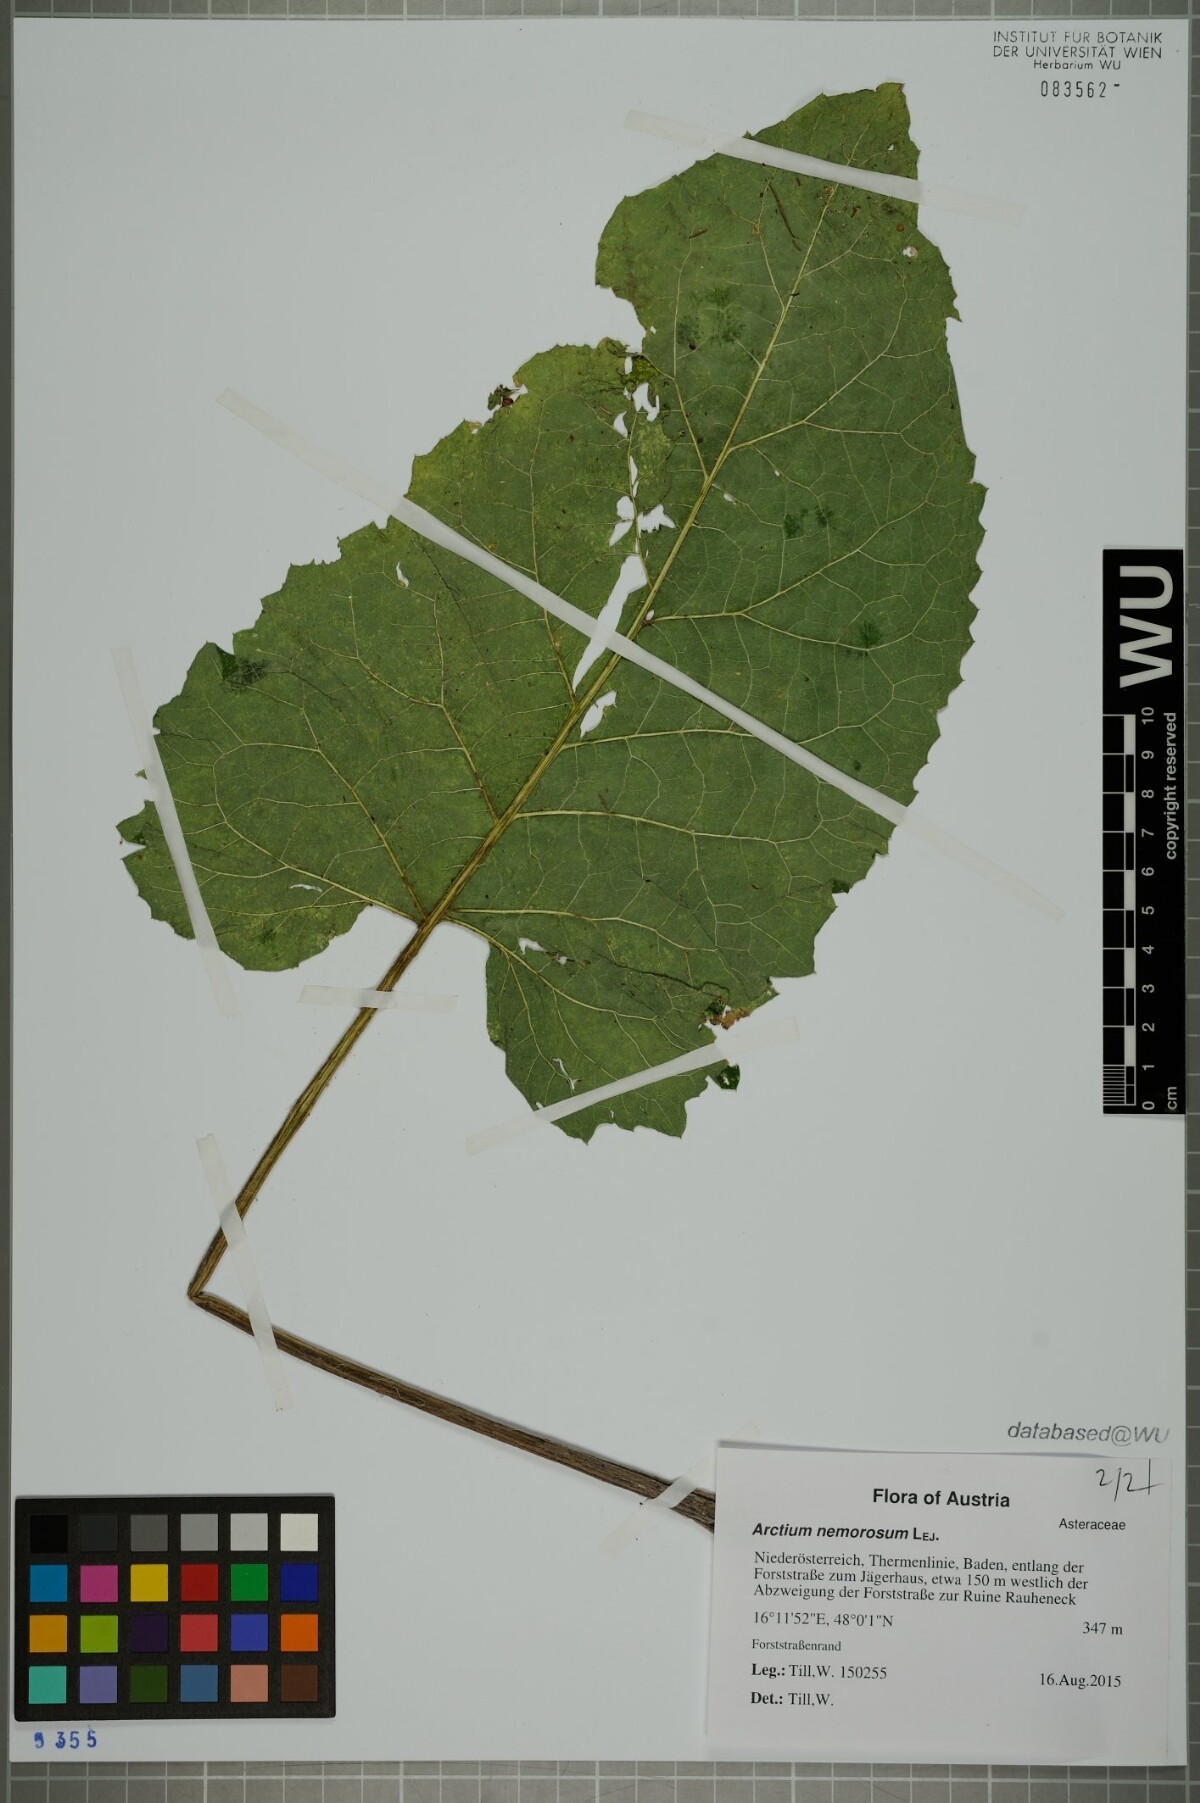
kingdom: Plantae
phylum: Tracheophyta
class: Magnoliopsida
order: Asterales
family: Asteraceae
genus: Arctium
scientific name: Arctium nemorosum
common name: Wood burdock
